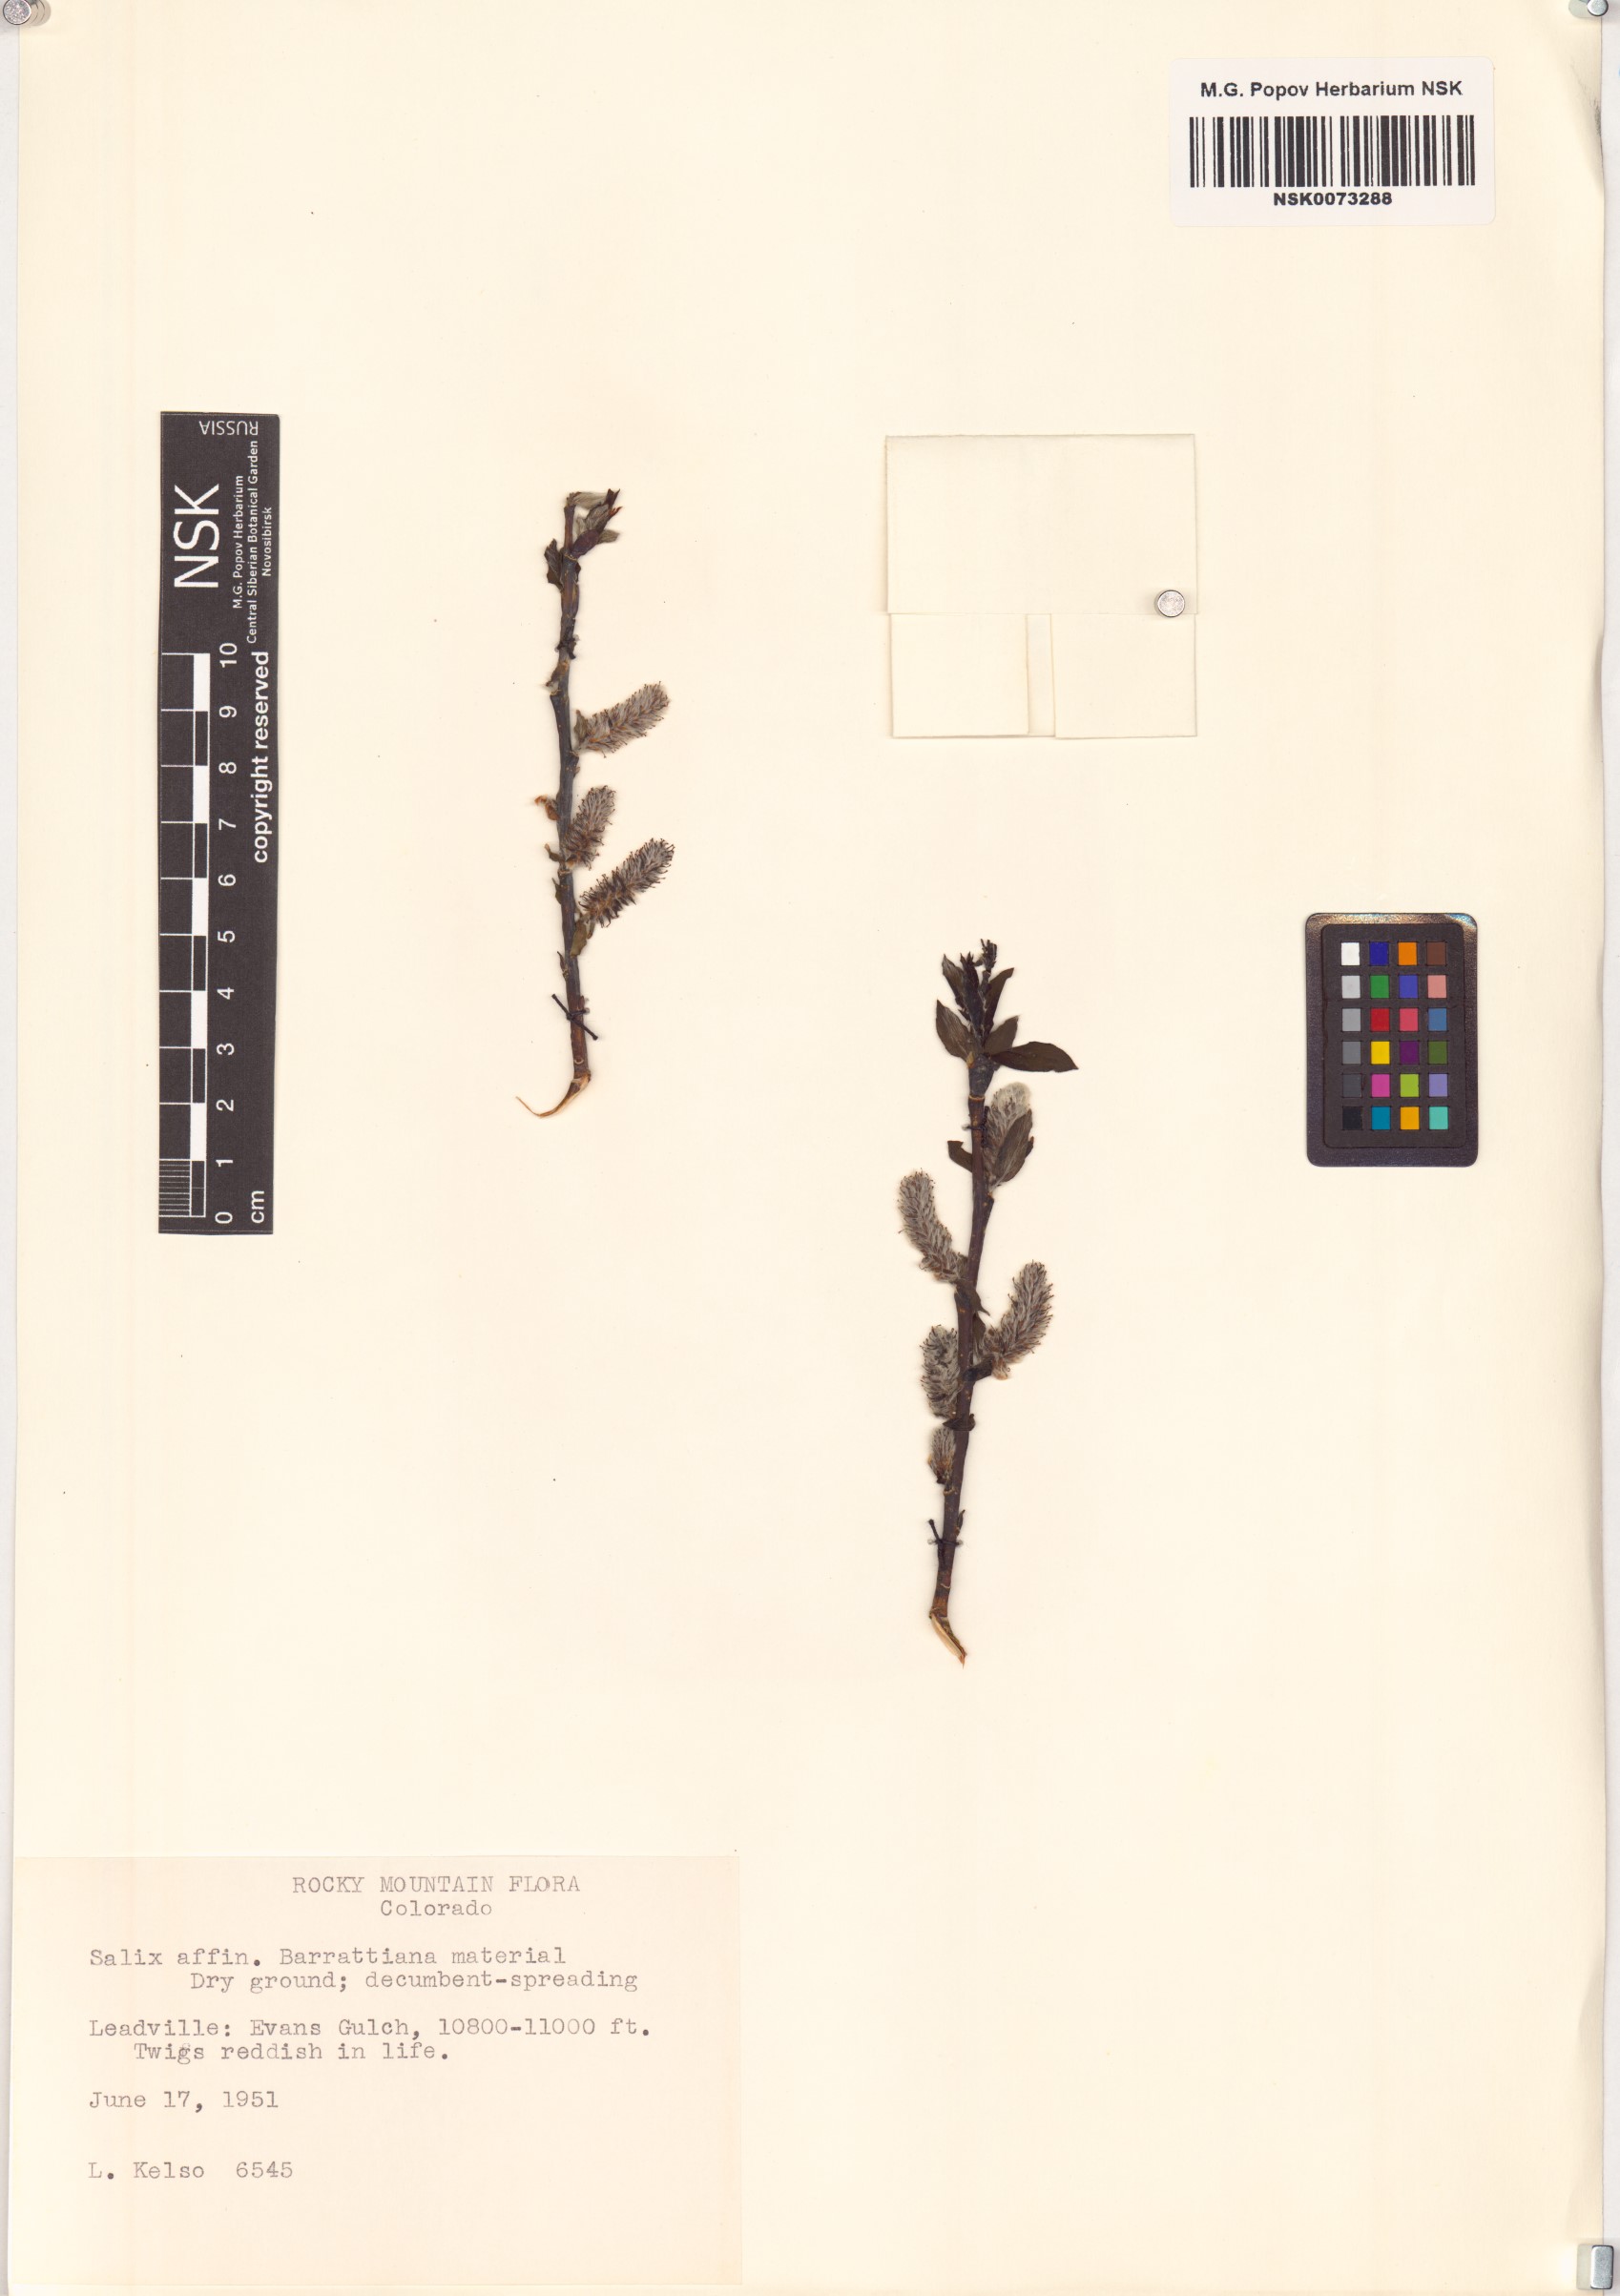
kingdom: Plantae
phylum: Tracheophyta
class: Magnoliopsida
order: Malpighiales
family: Salicaceae
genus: Salix
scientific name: Salix barrattiana
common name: Barratt's willow
